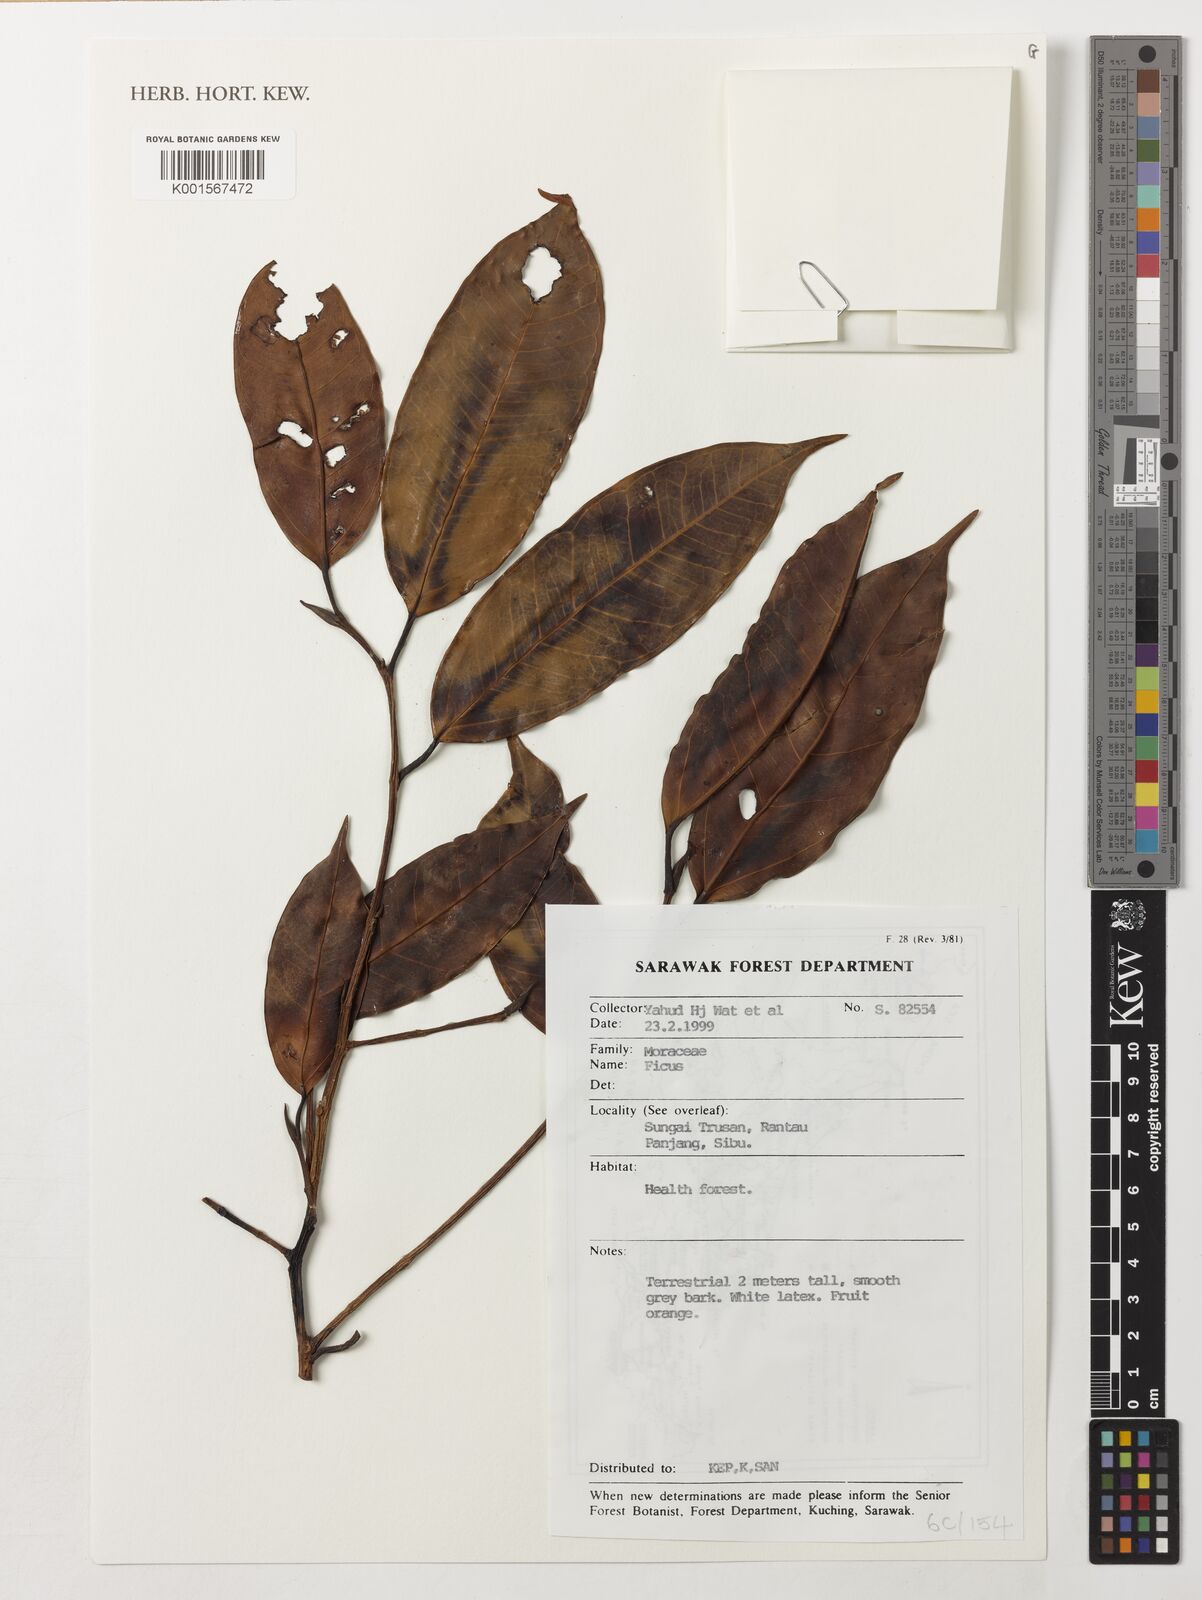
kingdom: Plantae
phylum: Tracheophyta
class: Magnoliopsida
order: Rosales
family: Moraceae
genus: Ficus
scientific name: Ficus
